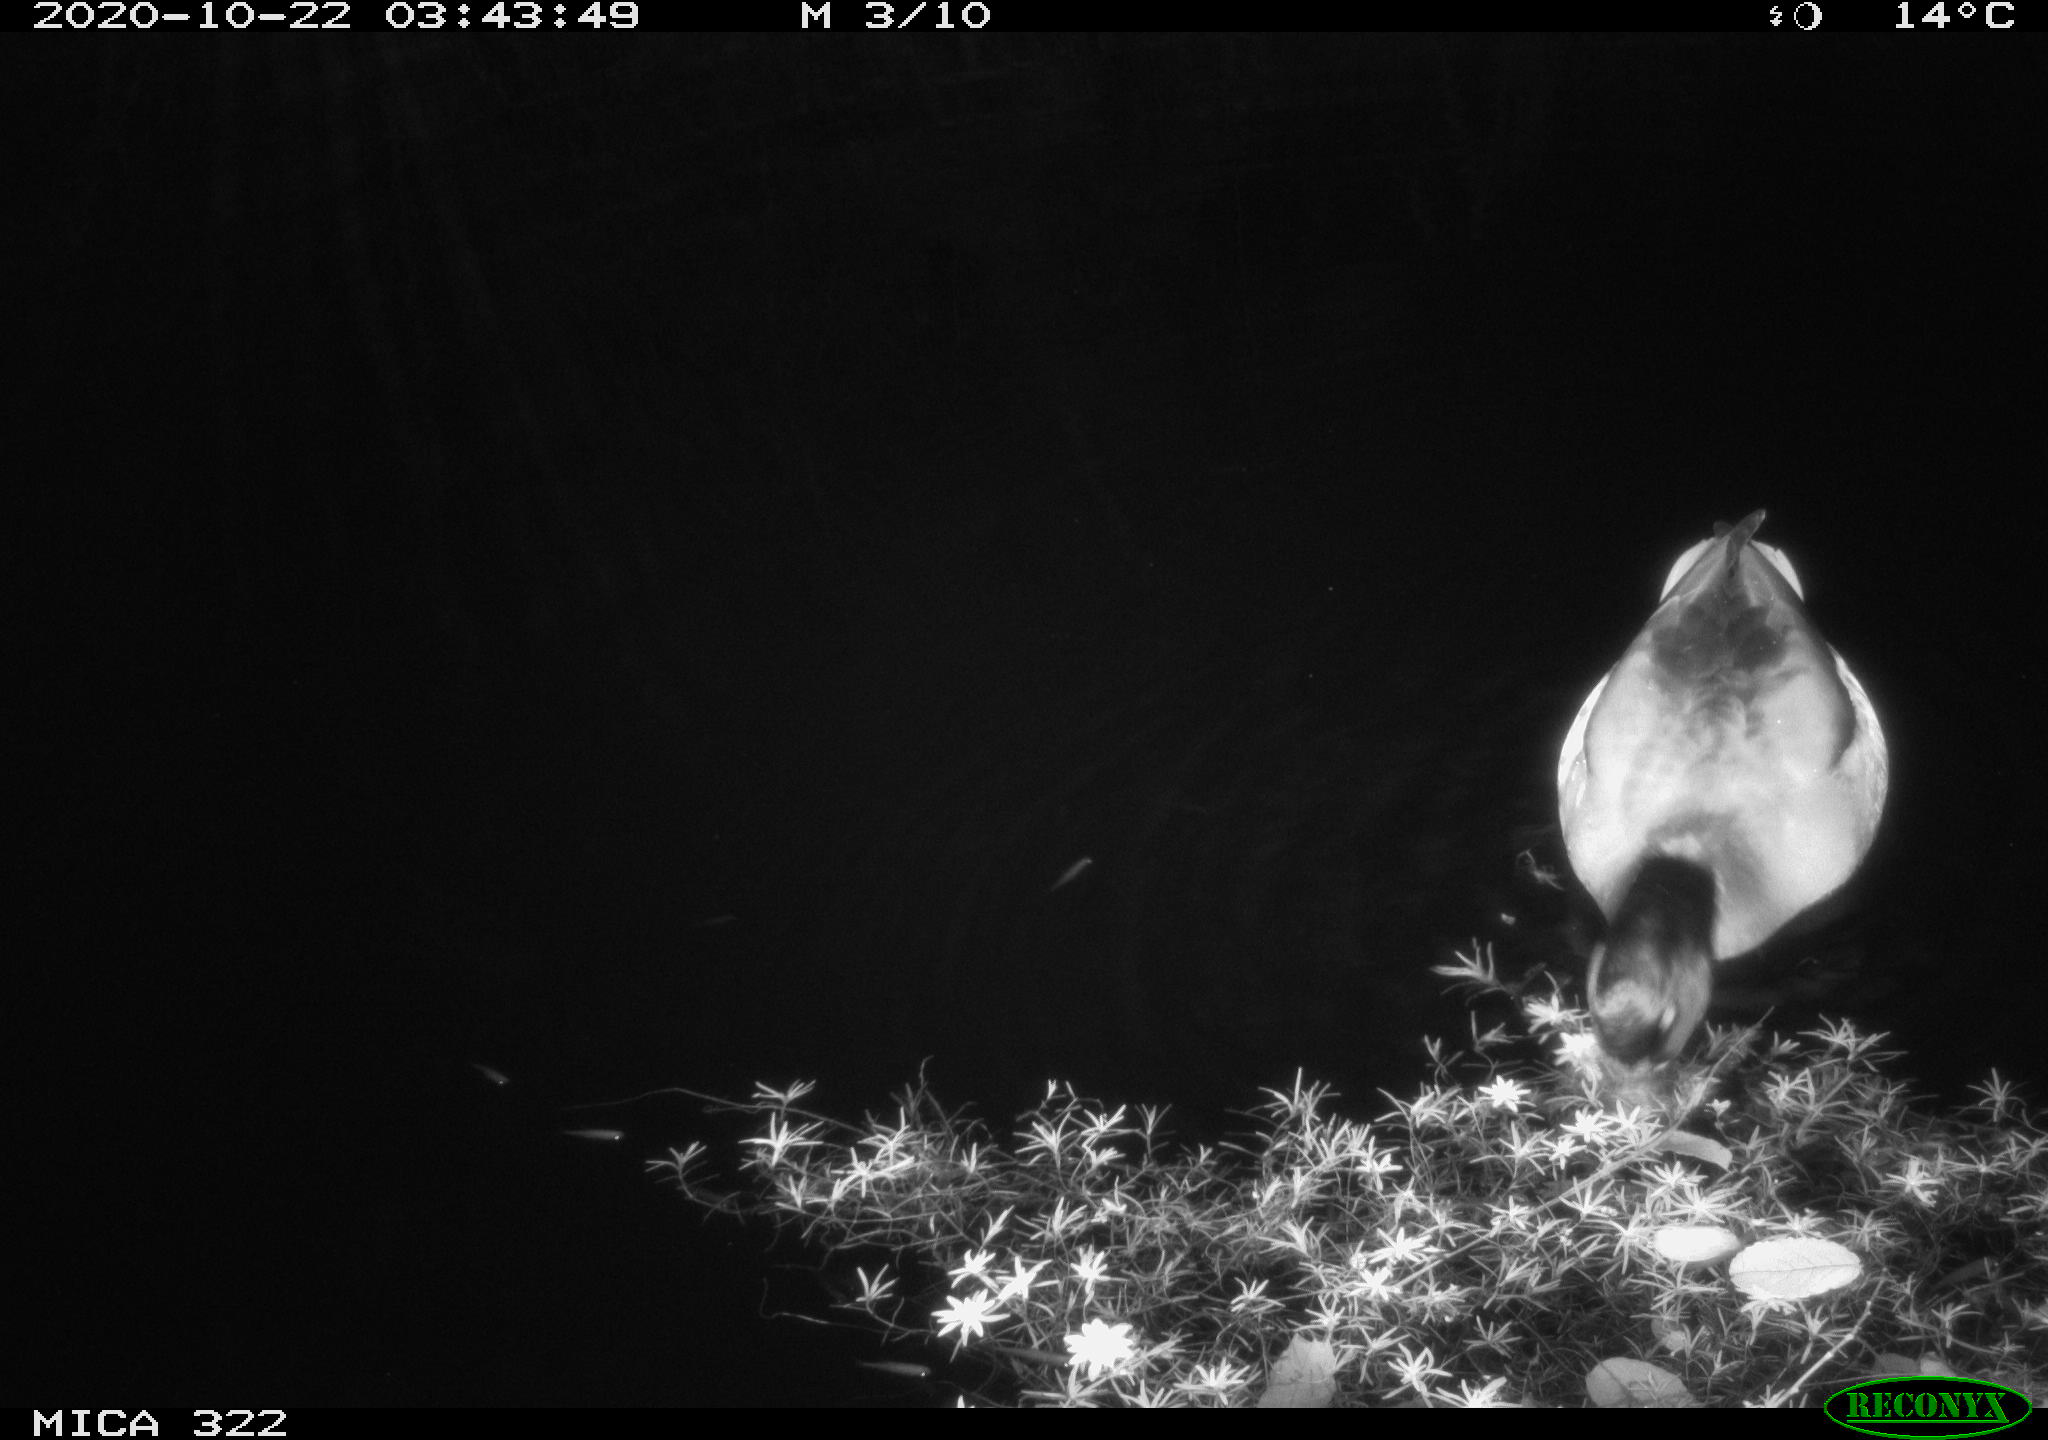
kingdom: Animalia
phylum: Chordata
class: Aves
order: Anseriformes
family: Anatidae
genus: Anas
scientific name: Anas platyrhynchos
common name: Mallard
